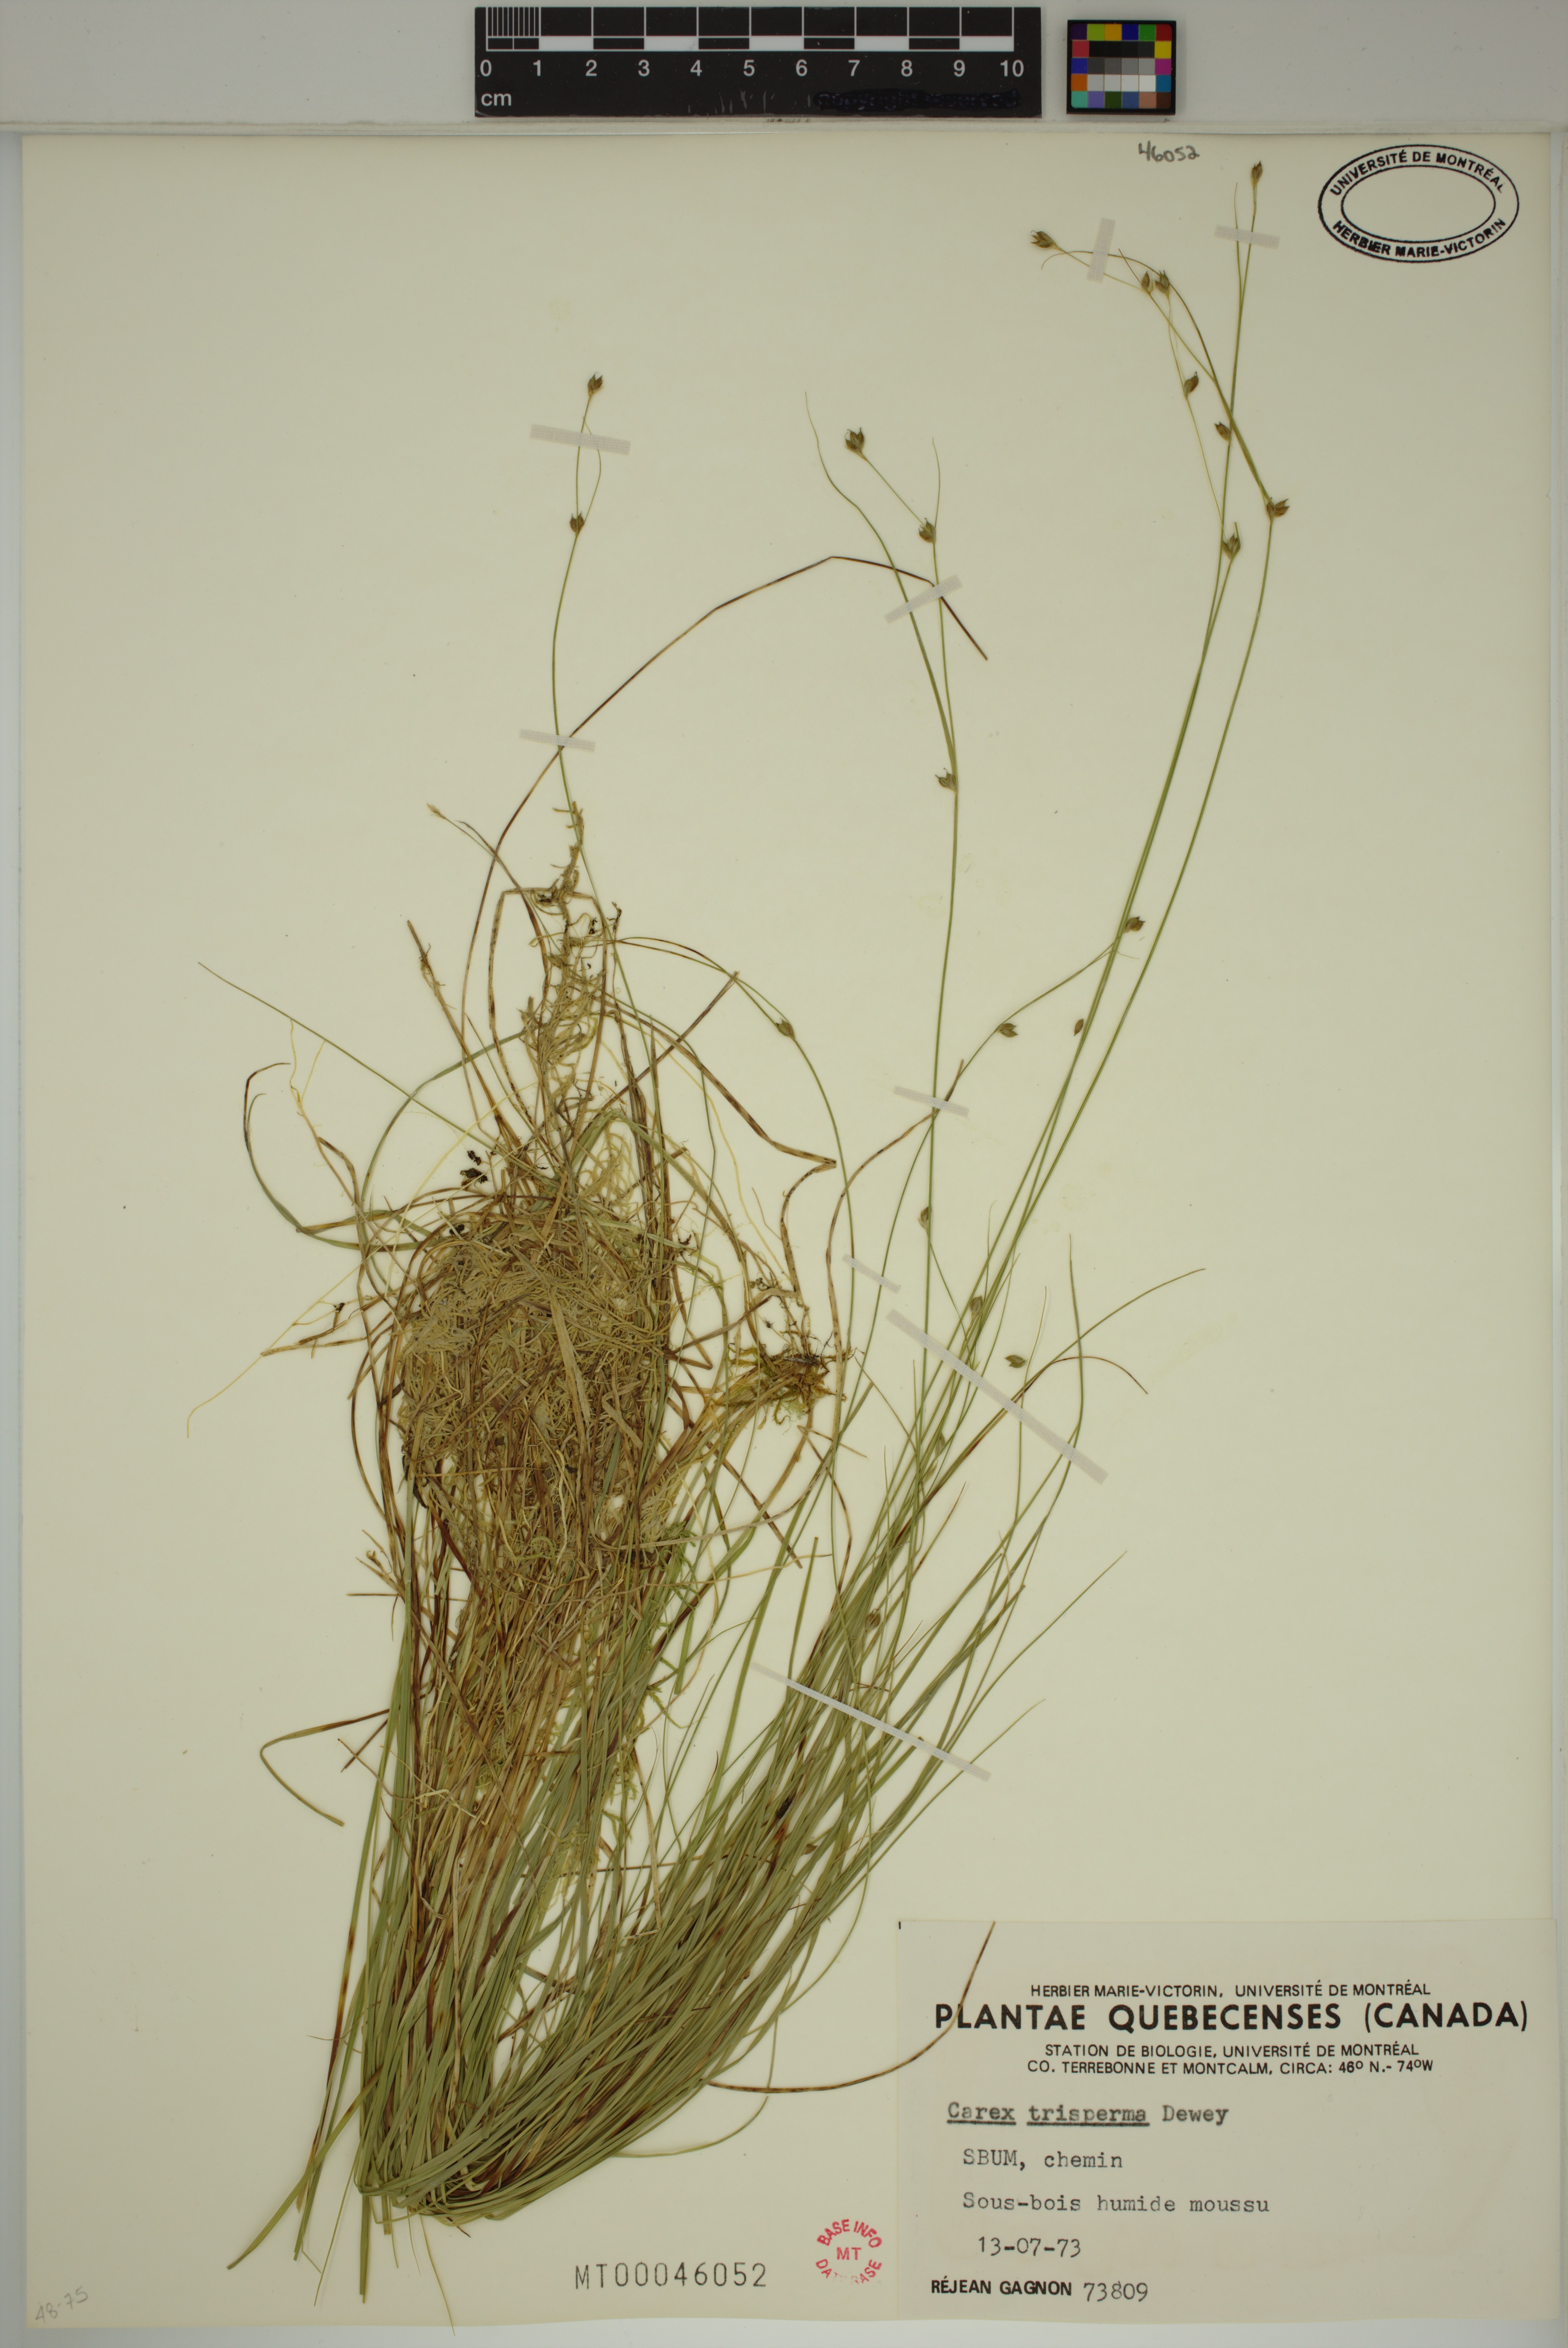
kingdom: Plantae
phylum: Tracheophyta
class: Liliopsida
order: Poales
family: Cyperaceae
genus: Carex
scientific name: Carex trisperma
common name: Three-seeded sedge
